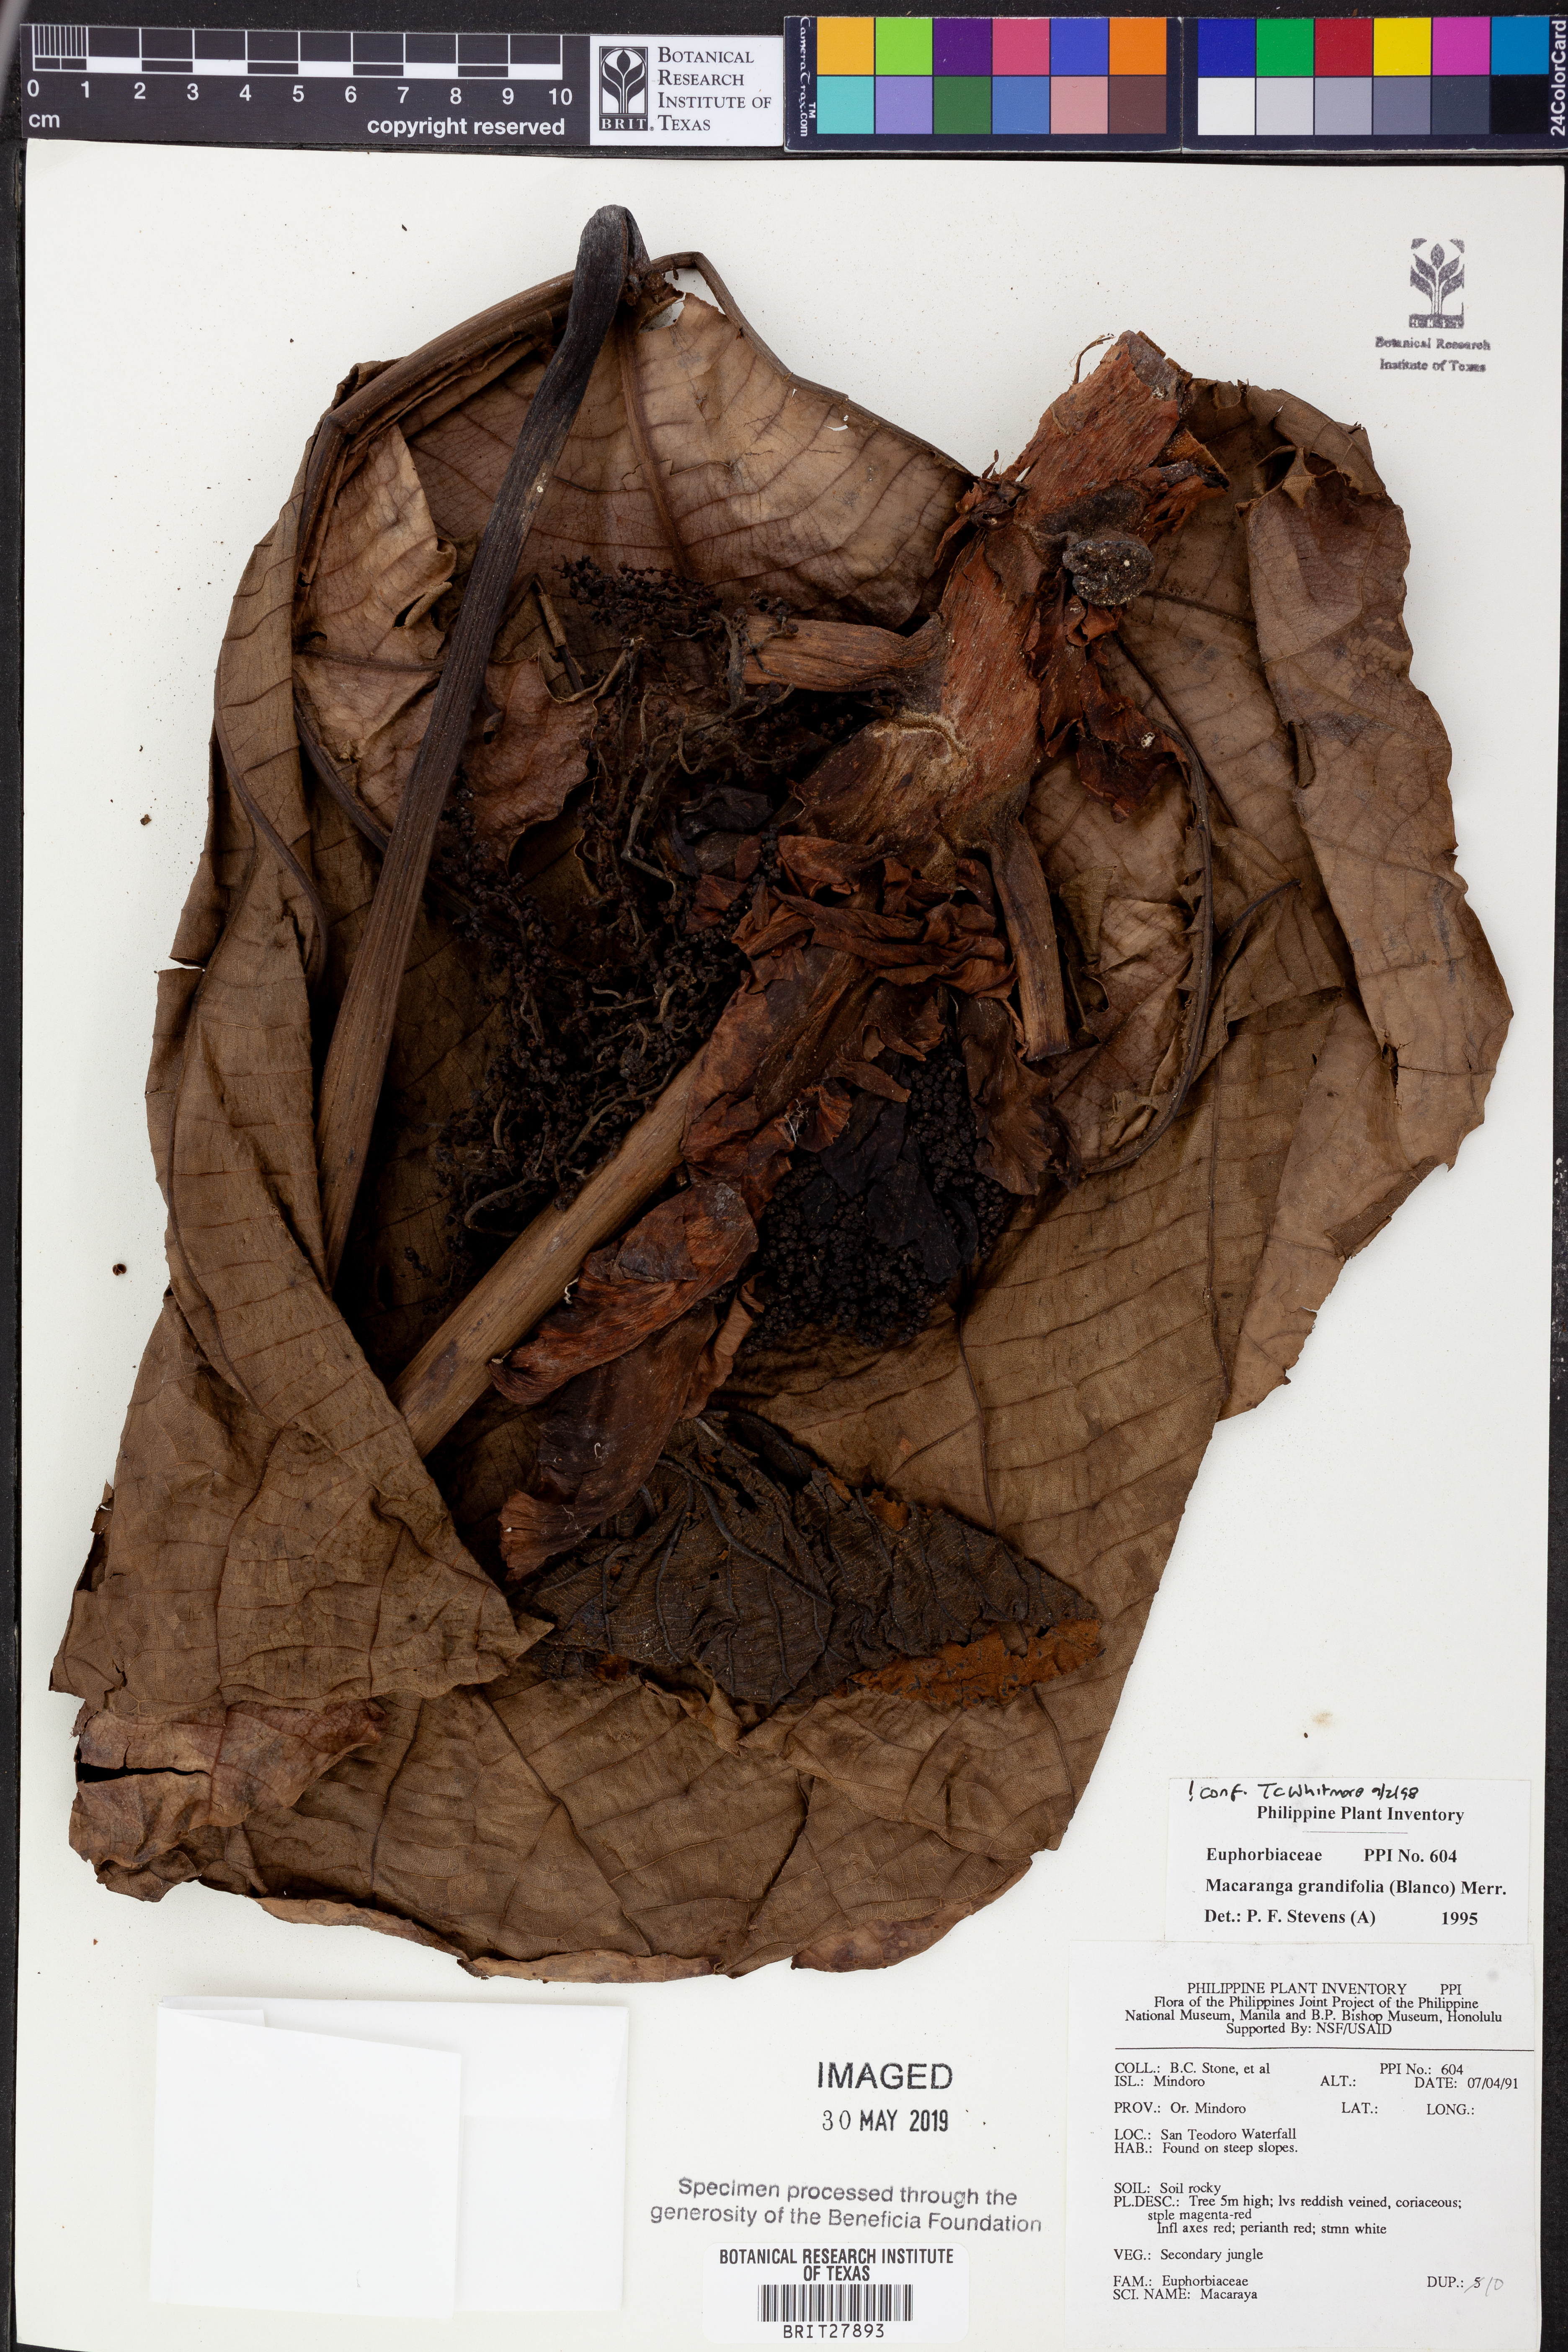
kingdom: Plantae
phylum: Tracheophyta
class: Magnoliopsida
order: Malpighiales
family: Euphorbiaceae
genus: Macaranga
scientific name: Macaranga grandifolia
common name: Coraltree
